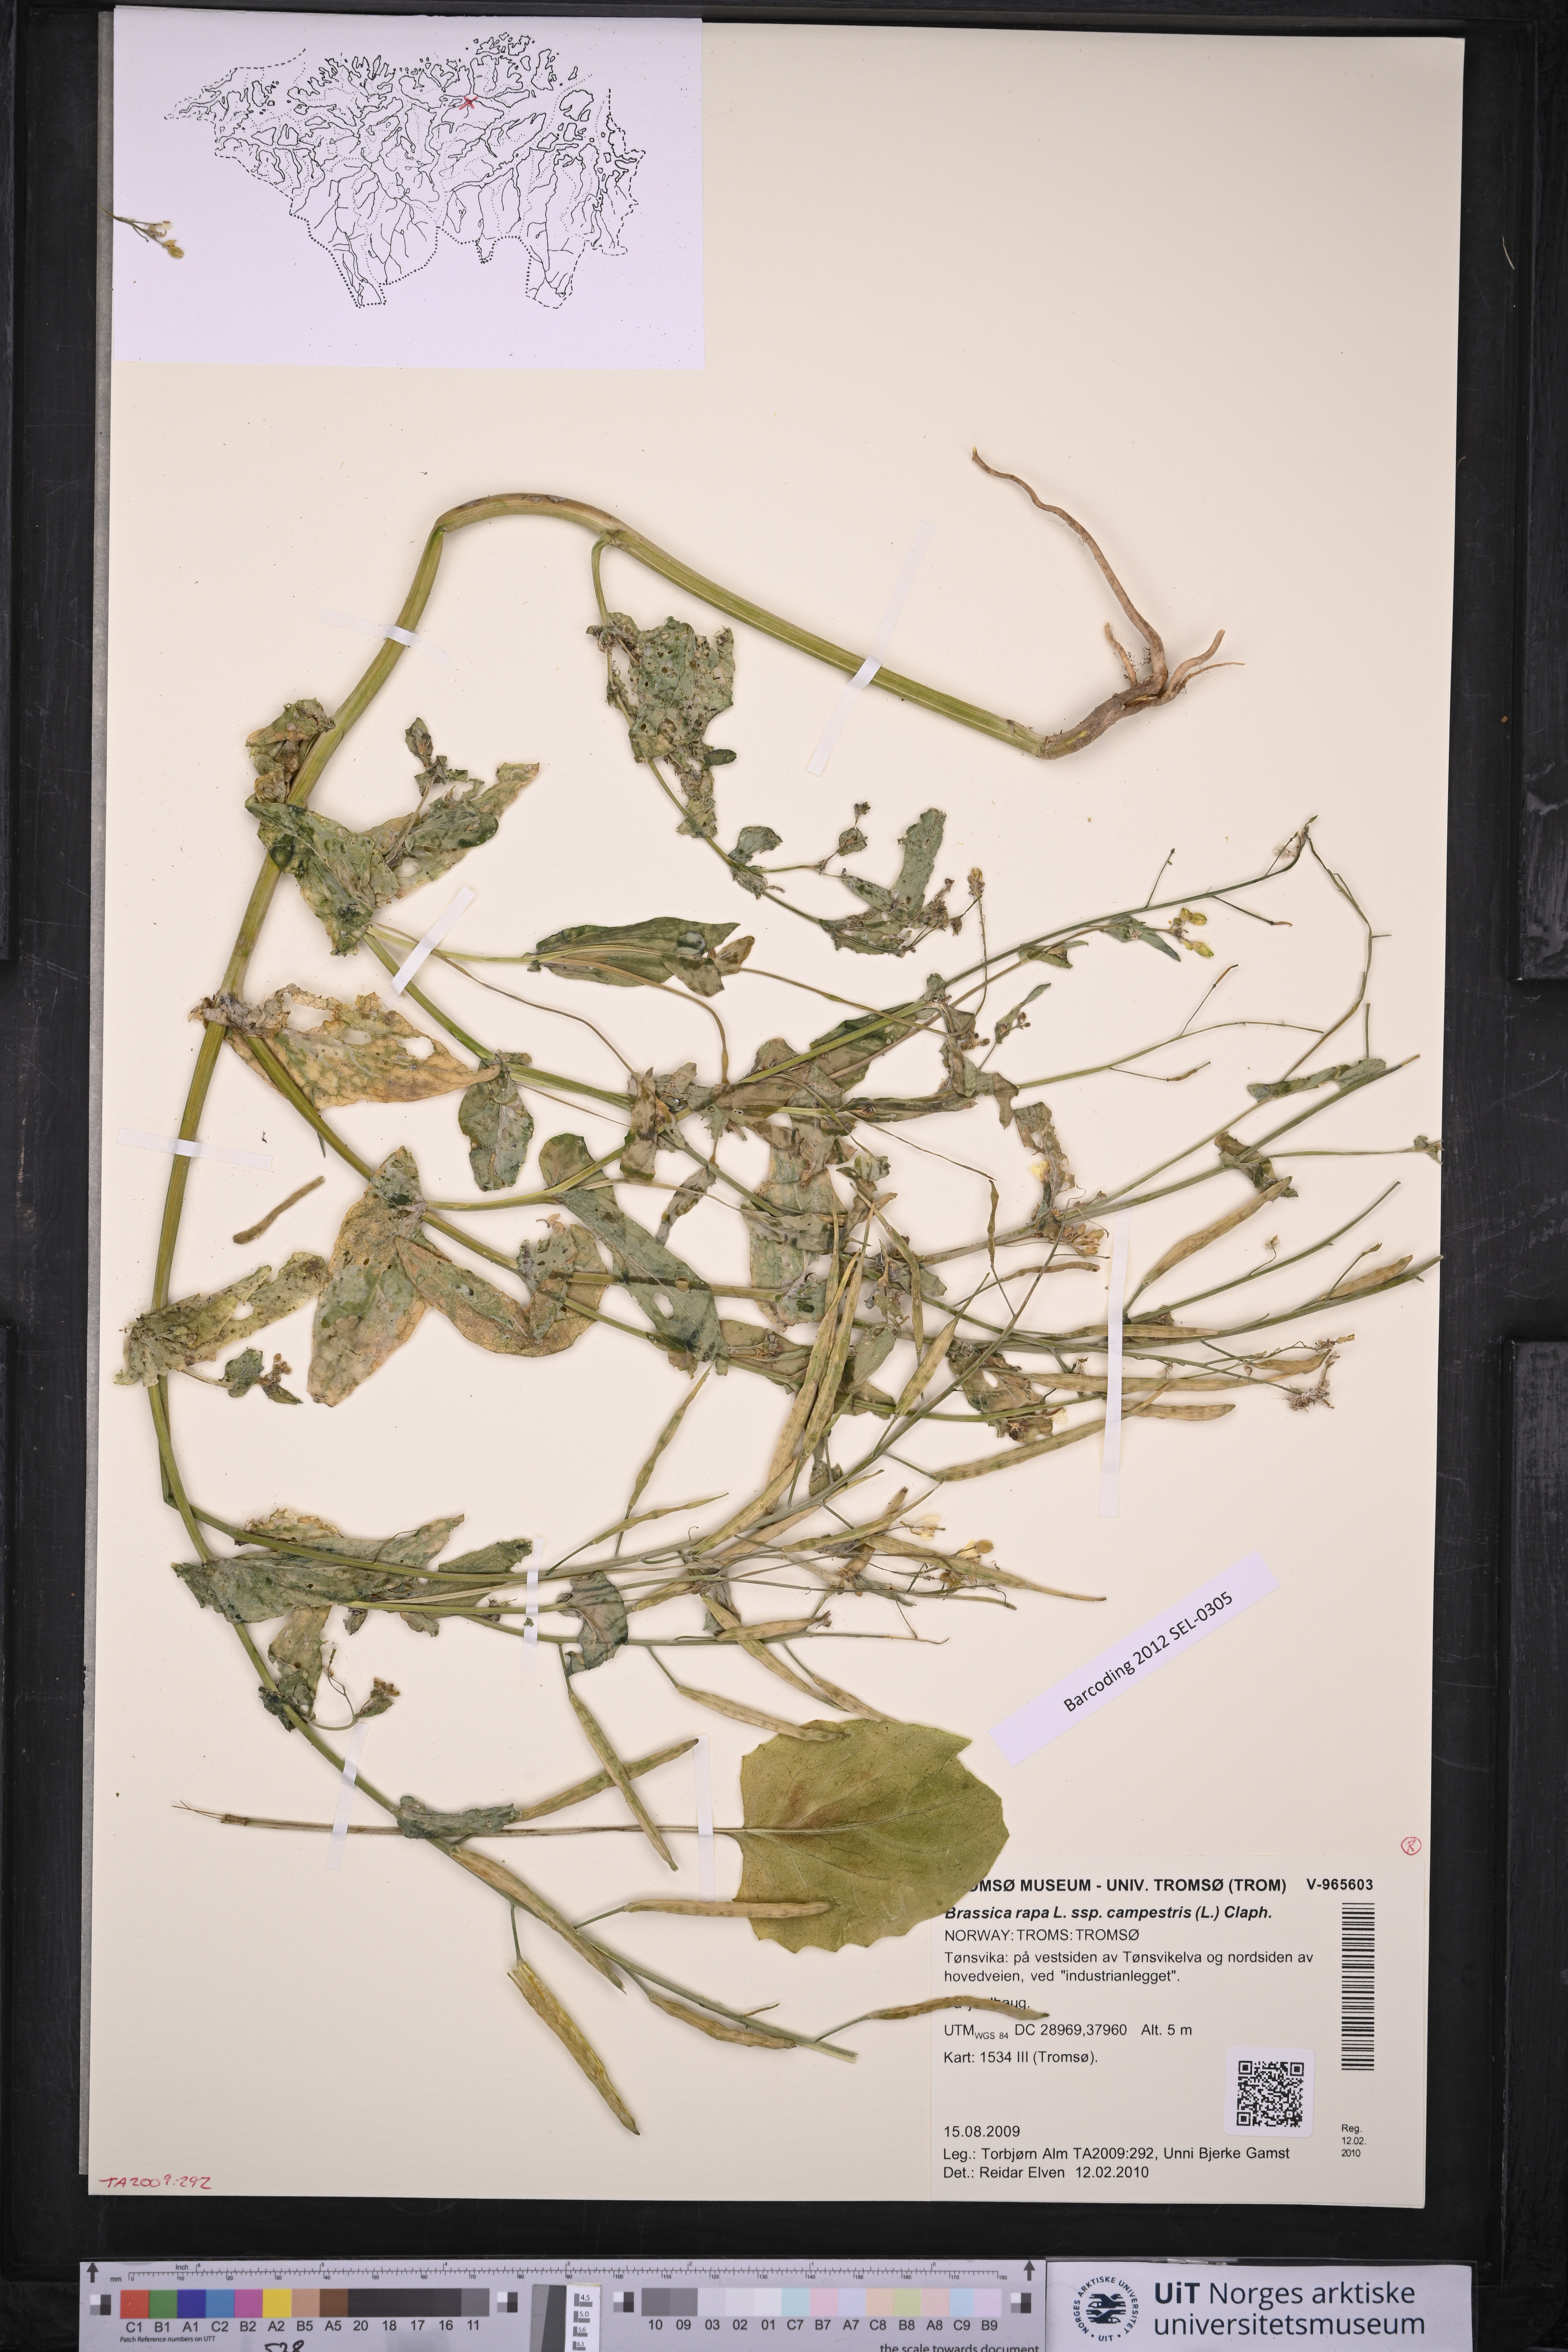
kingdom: Plantae
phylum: Tracheophyta
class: Magnoliopsida
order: Brassicales
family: Brassicaceae
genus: Brassica
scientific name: Brassica rapa
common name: Field mustard
